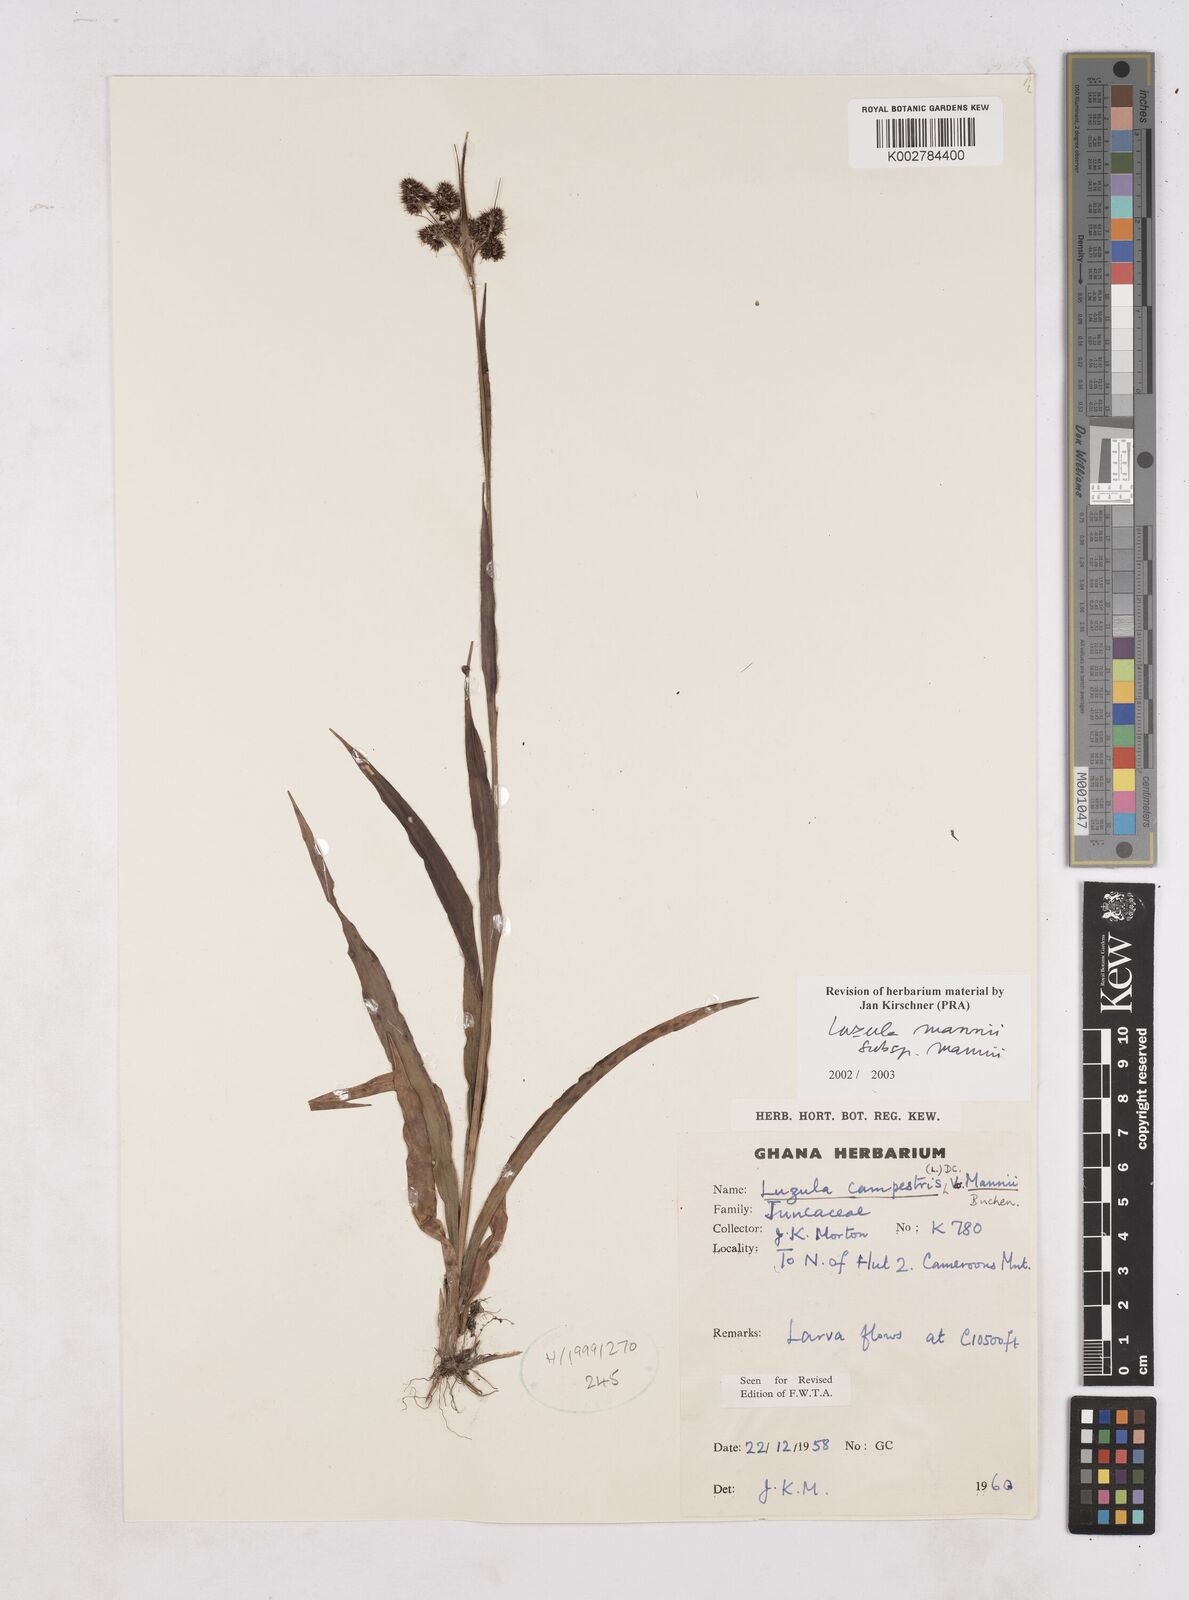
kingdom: Plantae
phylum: Tracheophyta
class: Liliopsida
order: Poales
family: Juncaceae
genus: Luzula
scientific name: Luzula mannii
